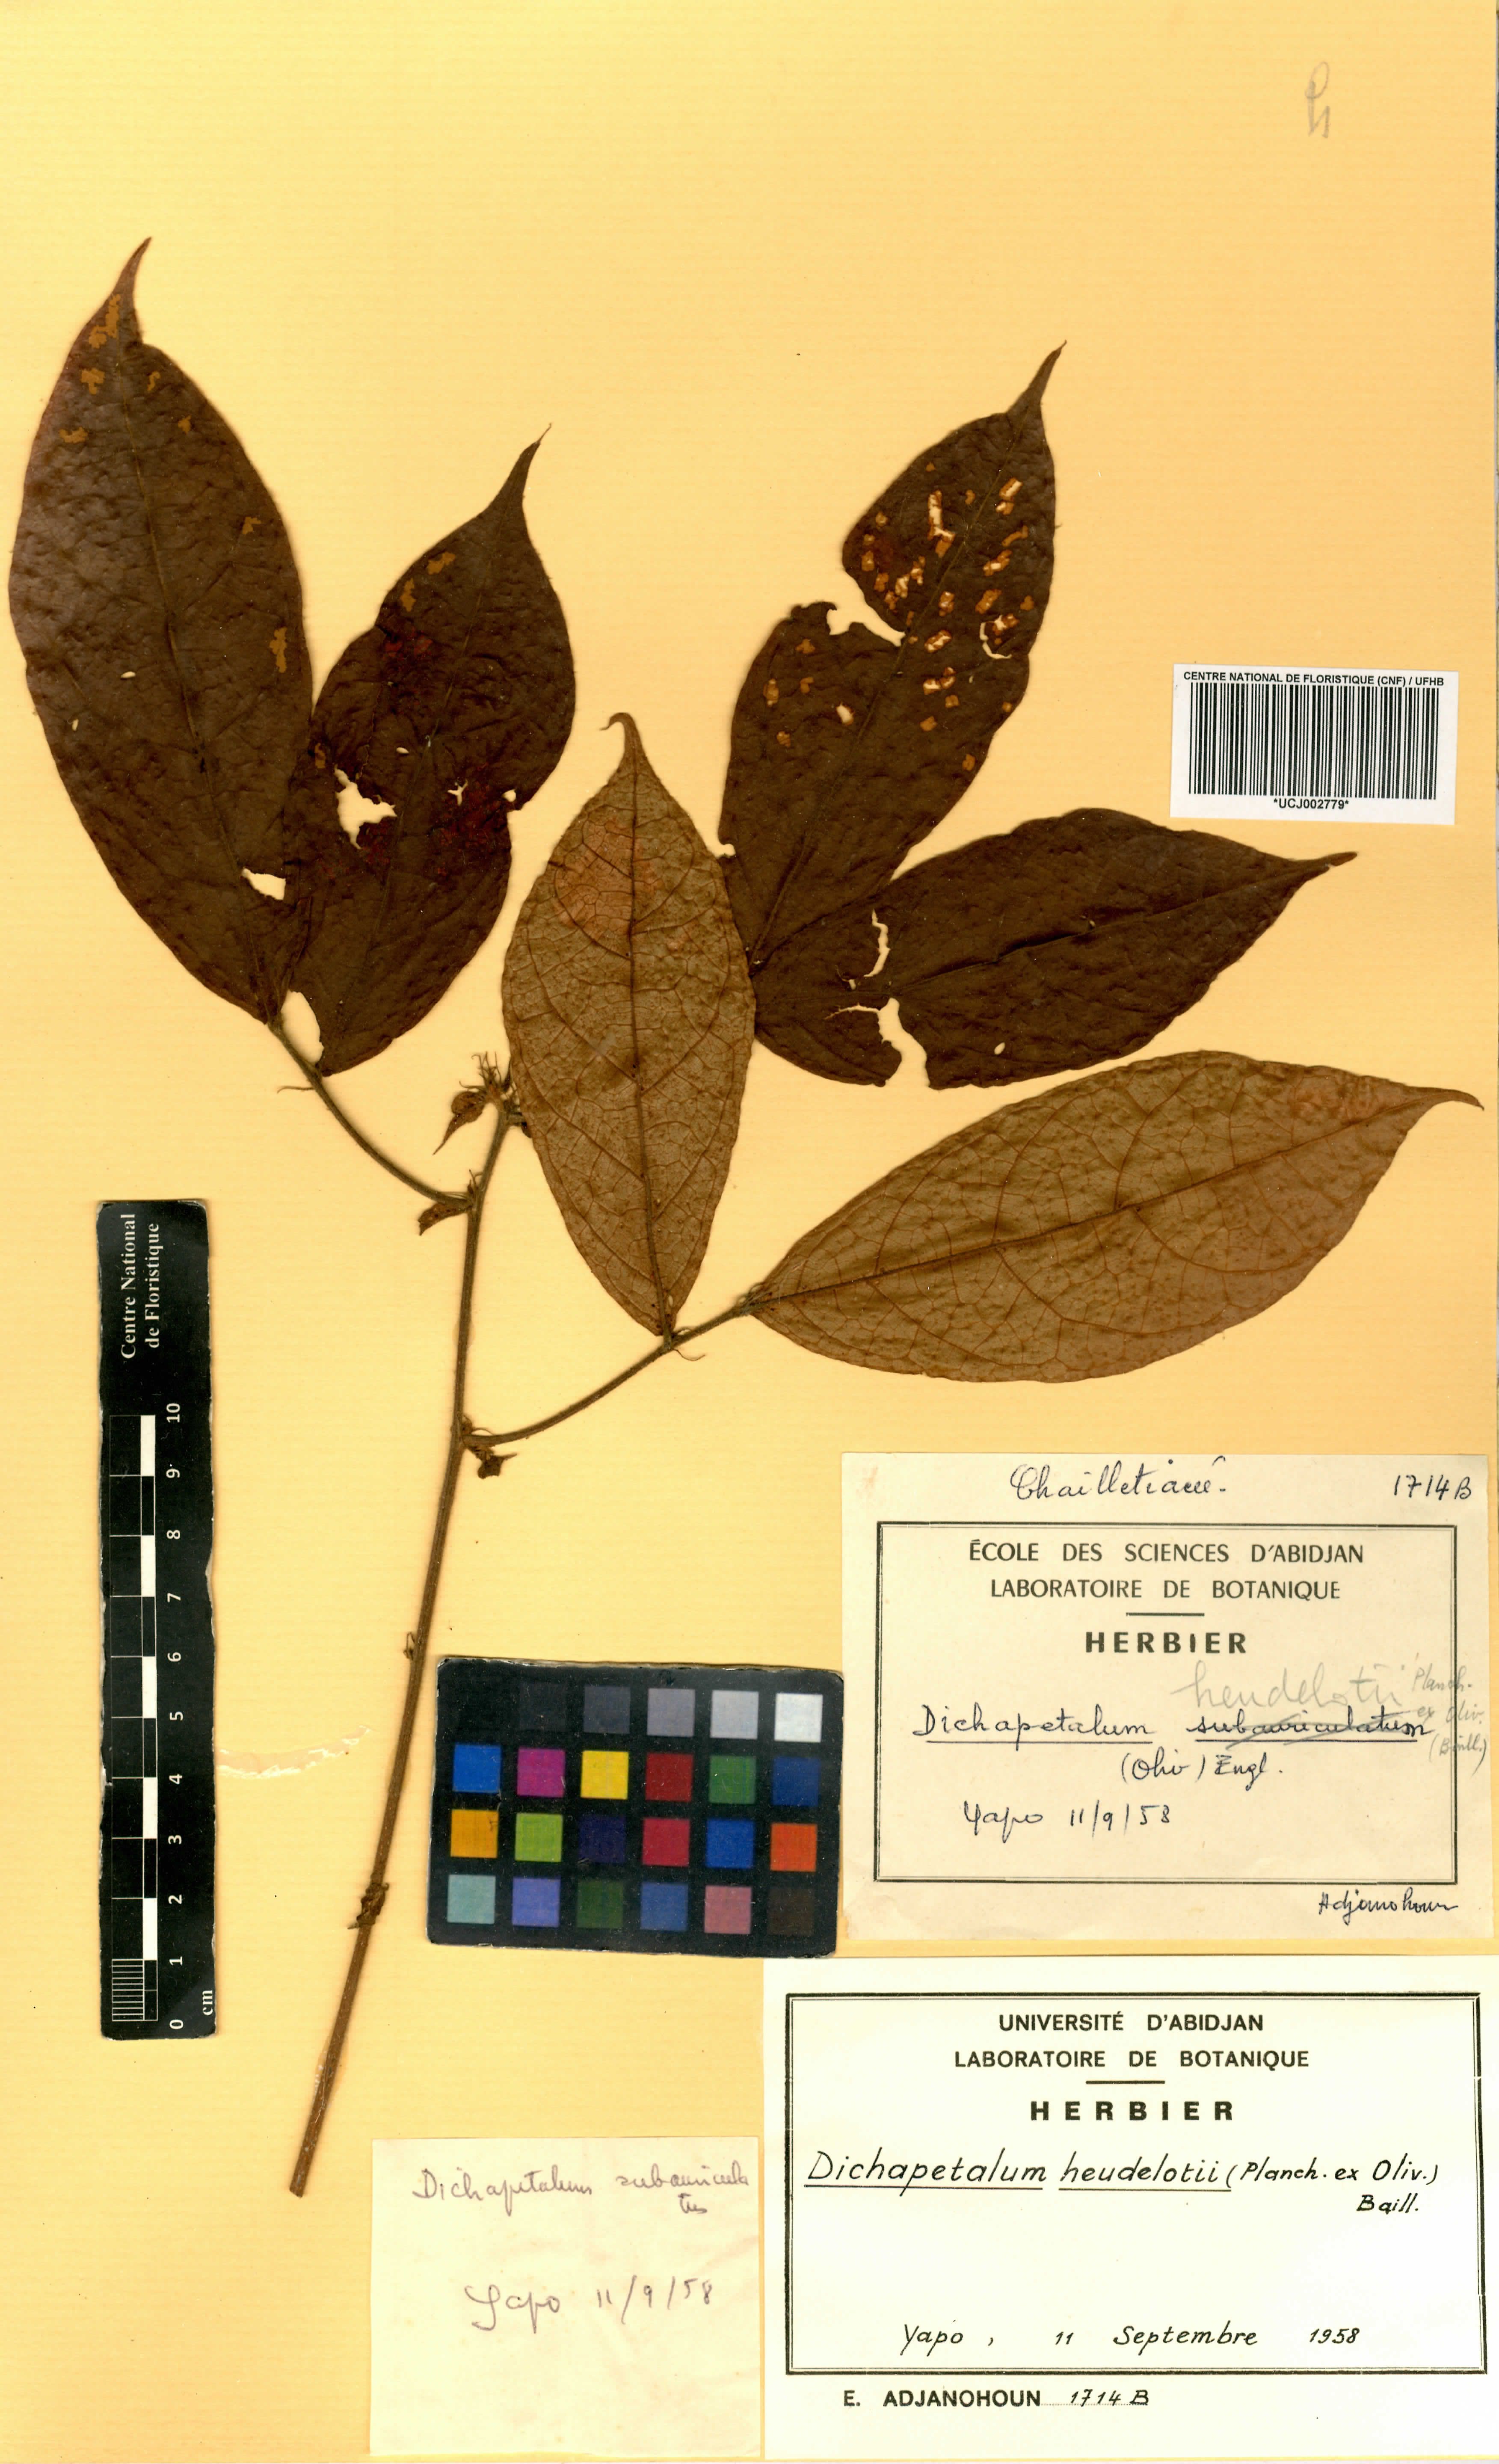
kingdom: Plantae
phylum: Tracheophyta
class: Magnoliopsida
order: Malpighiales
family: Dichapetalaceae
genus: Dichapetalum
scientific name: Dichapetalum heudelotii
